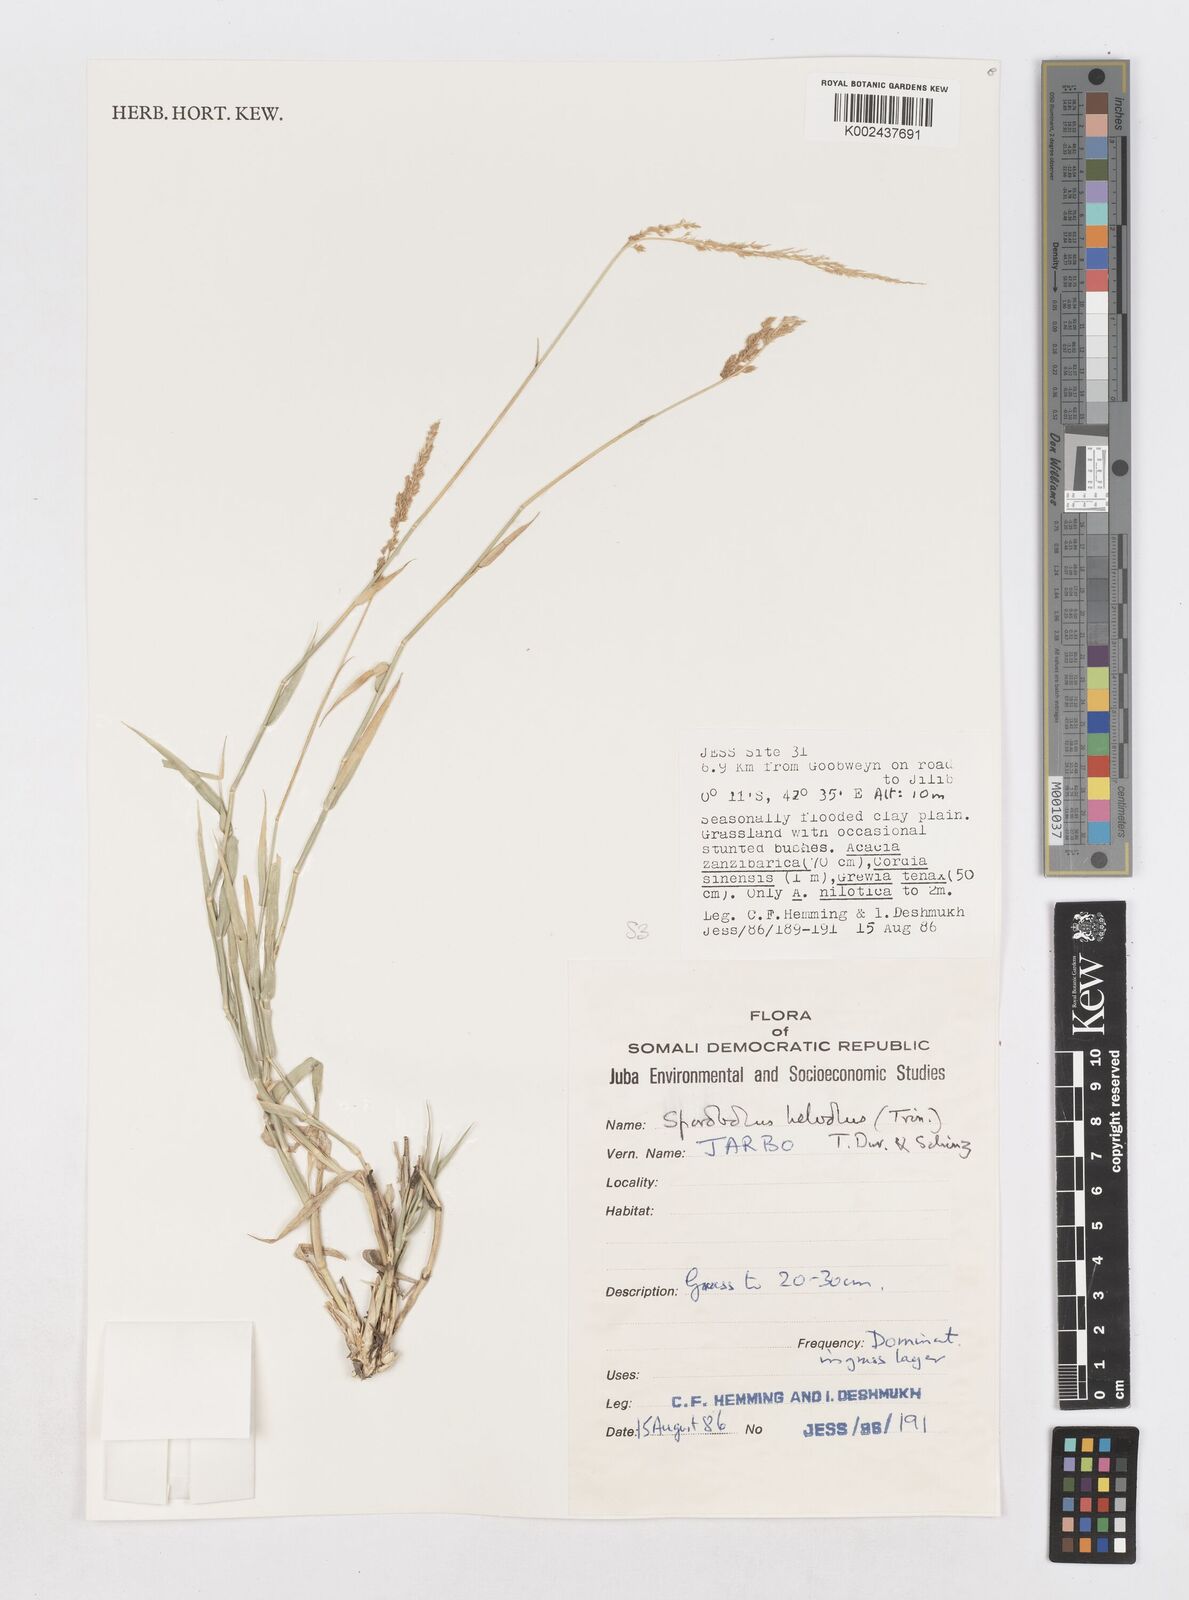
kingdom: Plantae
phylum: Tracheophyta
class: Liliopsida
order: Poales
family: Poaceae
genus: Sporobolus
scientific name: Sporobolus helvolus
